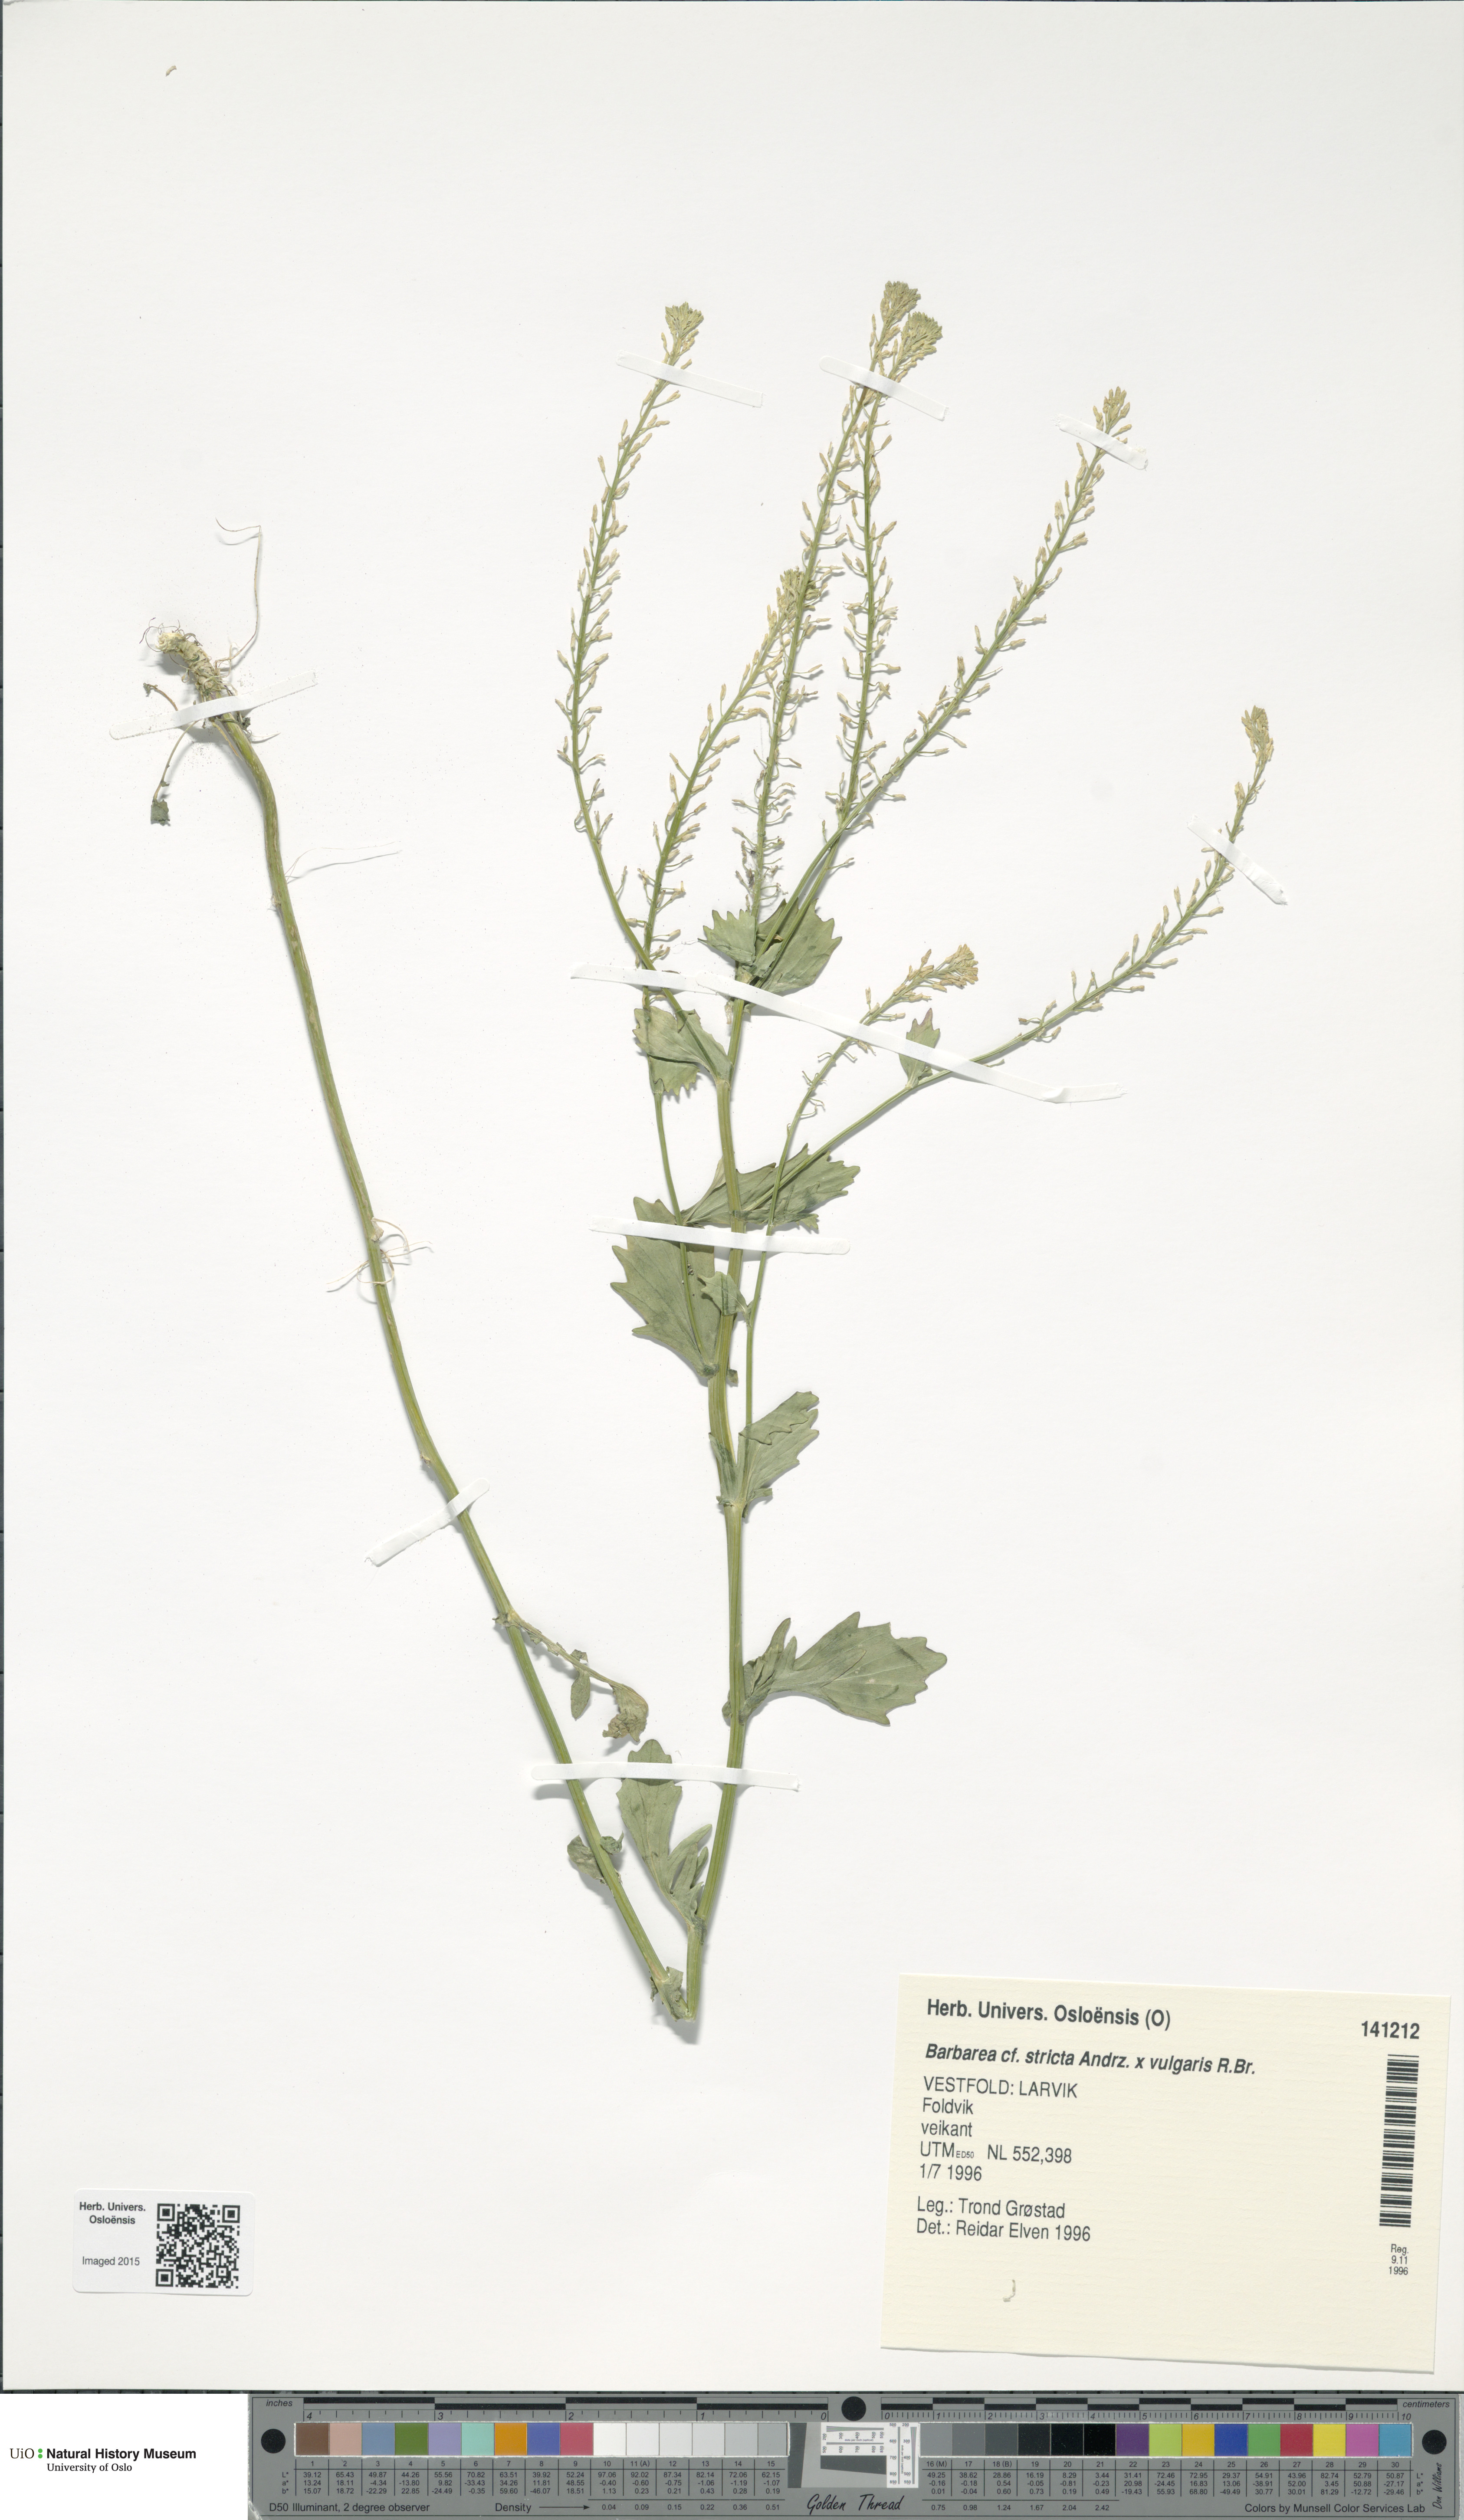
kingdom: Plantae
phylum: Tracheophyta
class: Magnoliopsida
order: Brassicales
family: Brassicaceae
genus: Barbarea
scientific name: Barbarea
